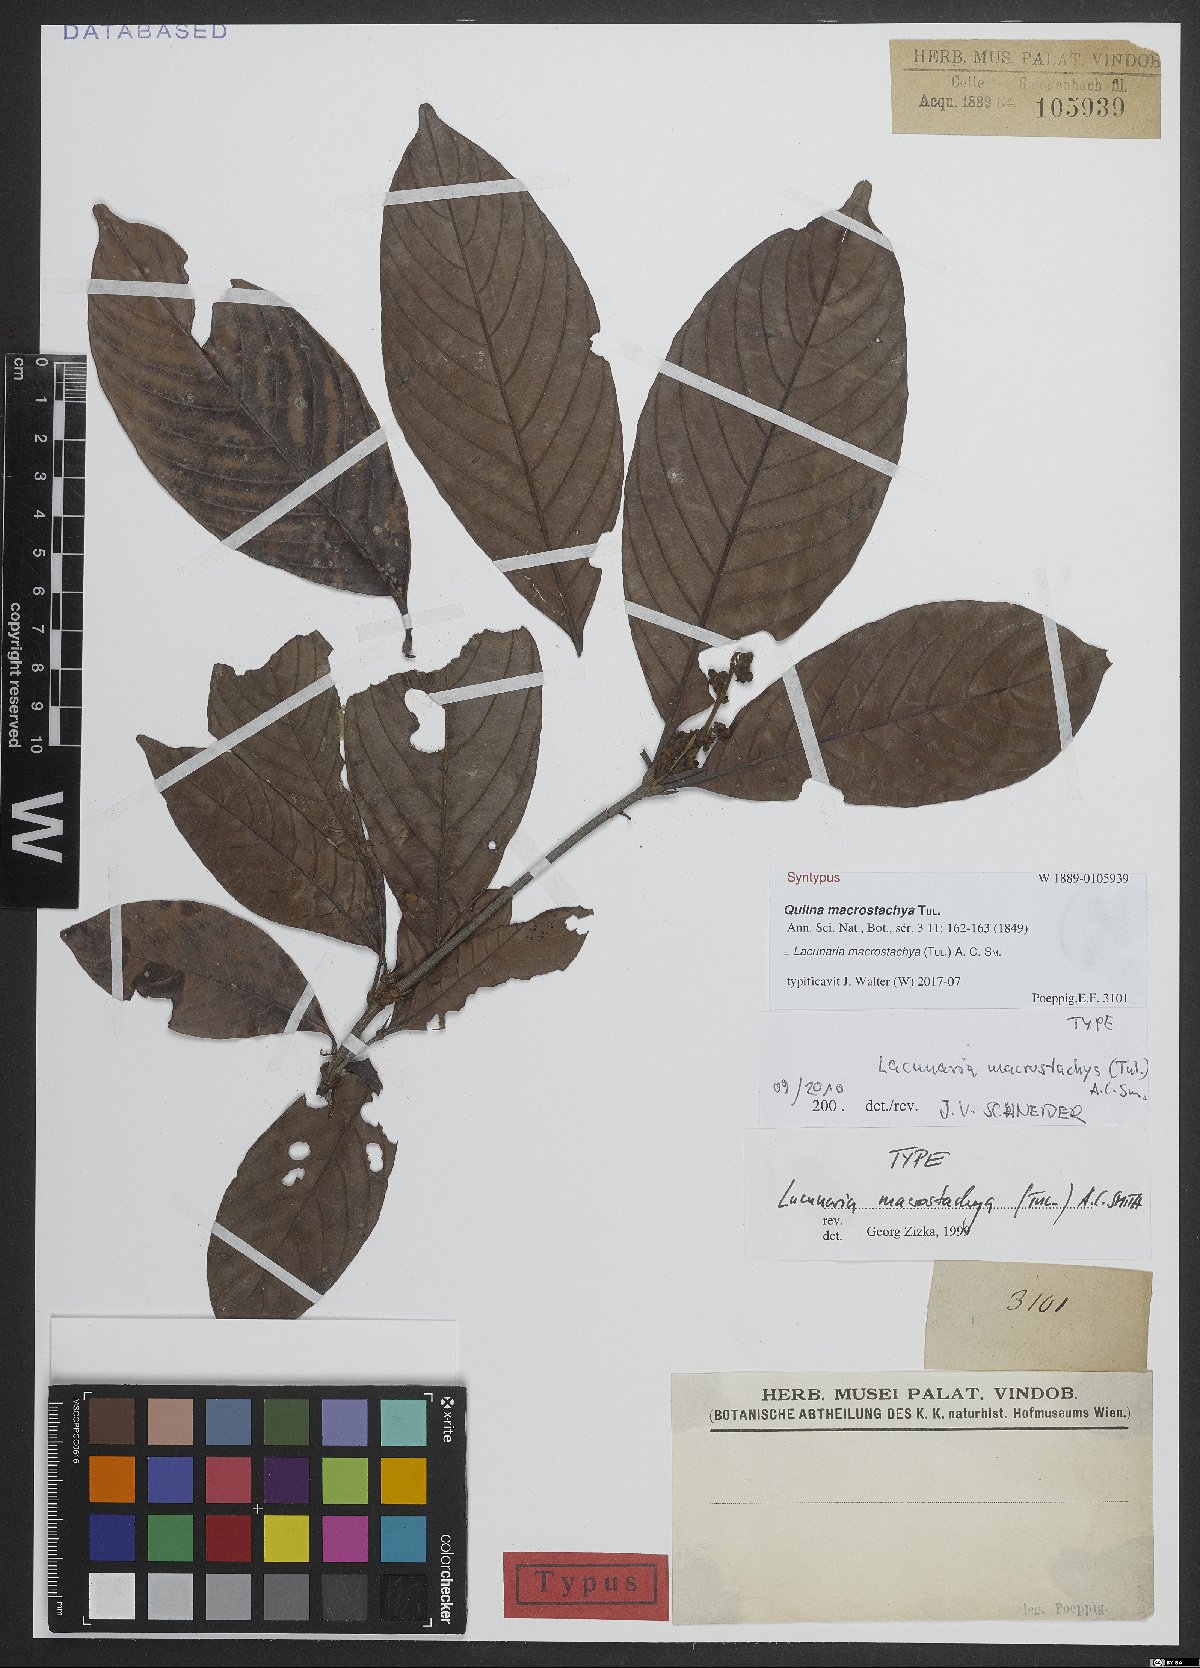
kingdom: Plantae
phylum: Tracheophyta
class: Magnoliopsida
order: Malpighiales
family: Quiinaceae
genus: Lacunaria
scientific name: Lacunaria macrostachya
